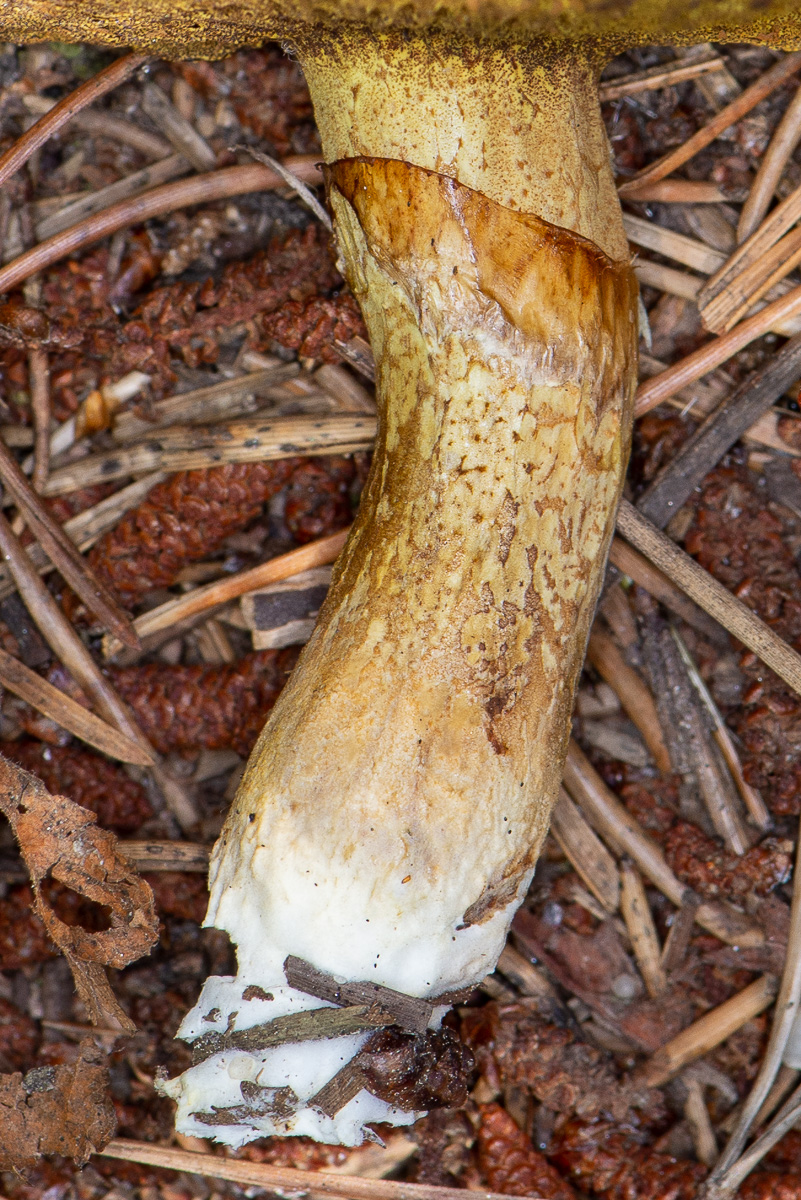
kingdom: Fungi
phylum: Basidiomycota
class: Agaricomycetes
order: Boletales
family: Suillaceae
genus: Suillus
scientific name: Suillus flavidus
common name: mose-slimrørhat
